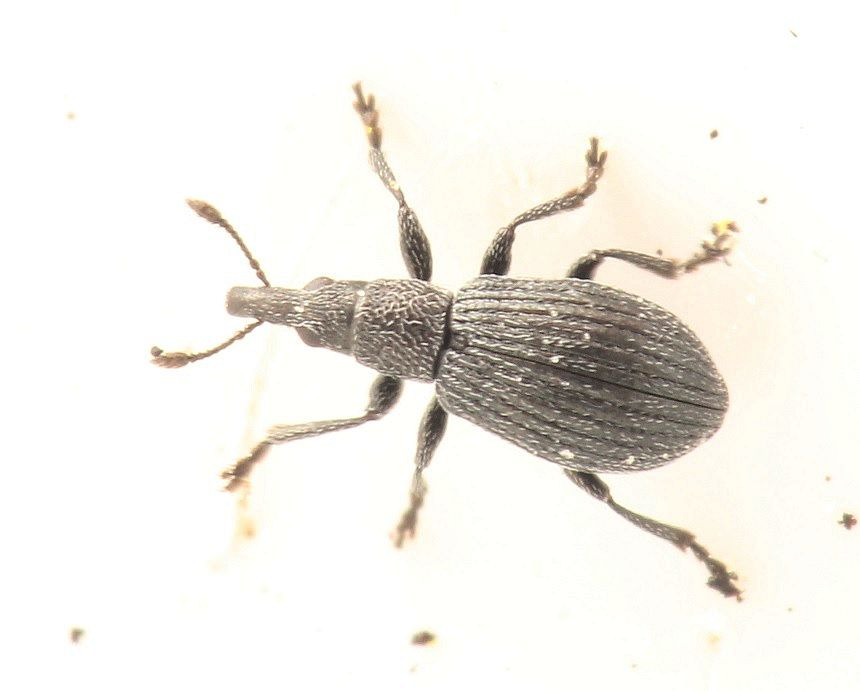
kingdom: Animalia
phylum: Arthropoda
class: Insecta
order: Coleoptera
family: Brentidae
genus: Perapion
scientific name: Perapion curtirostre
